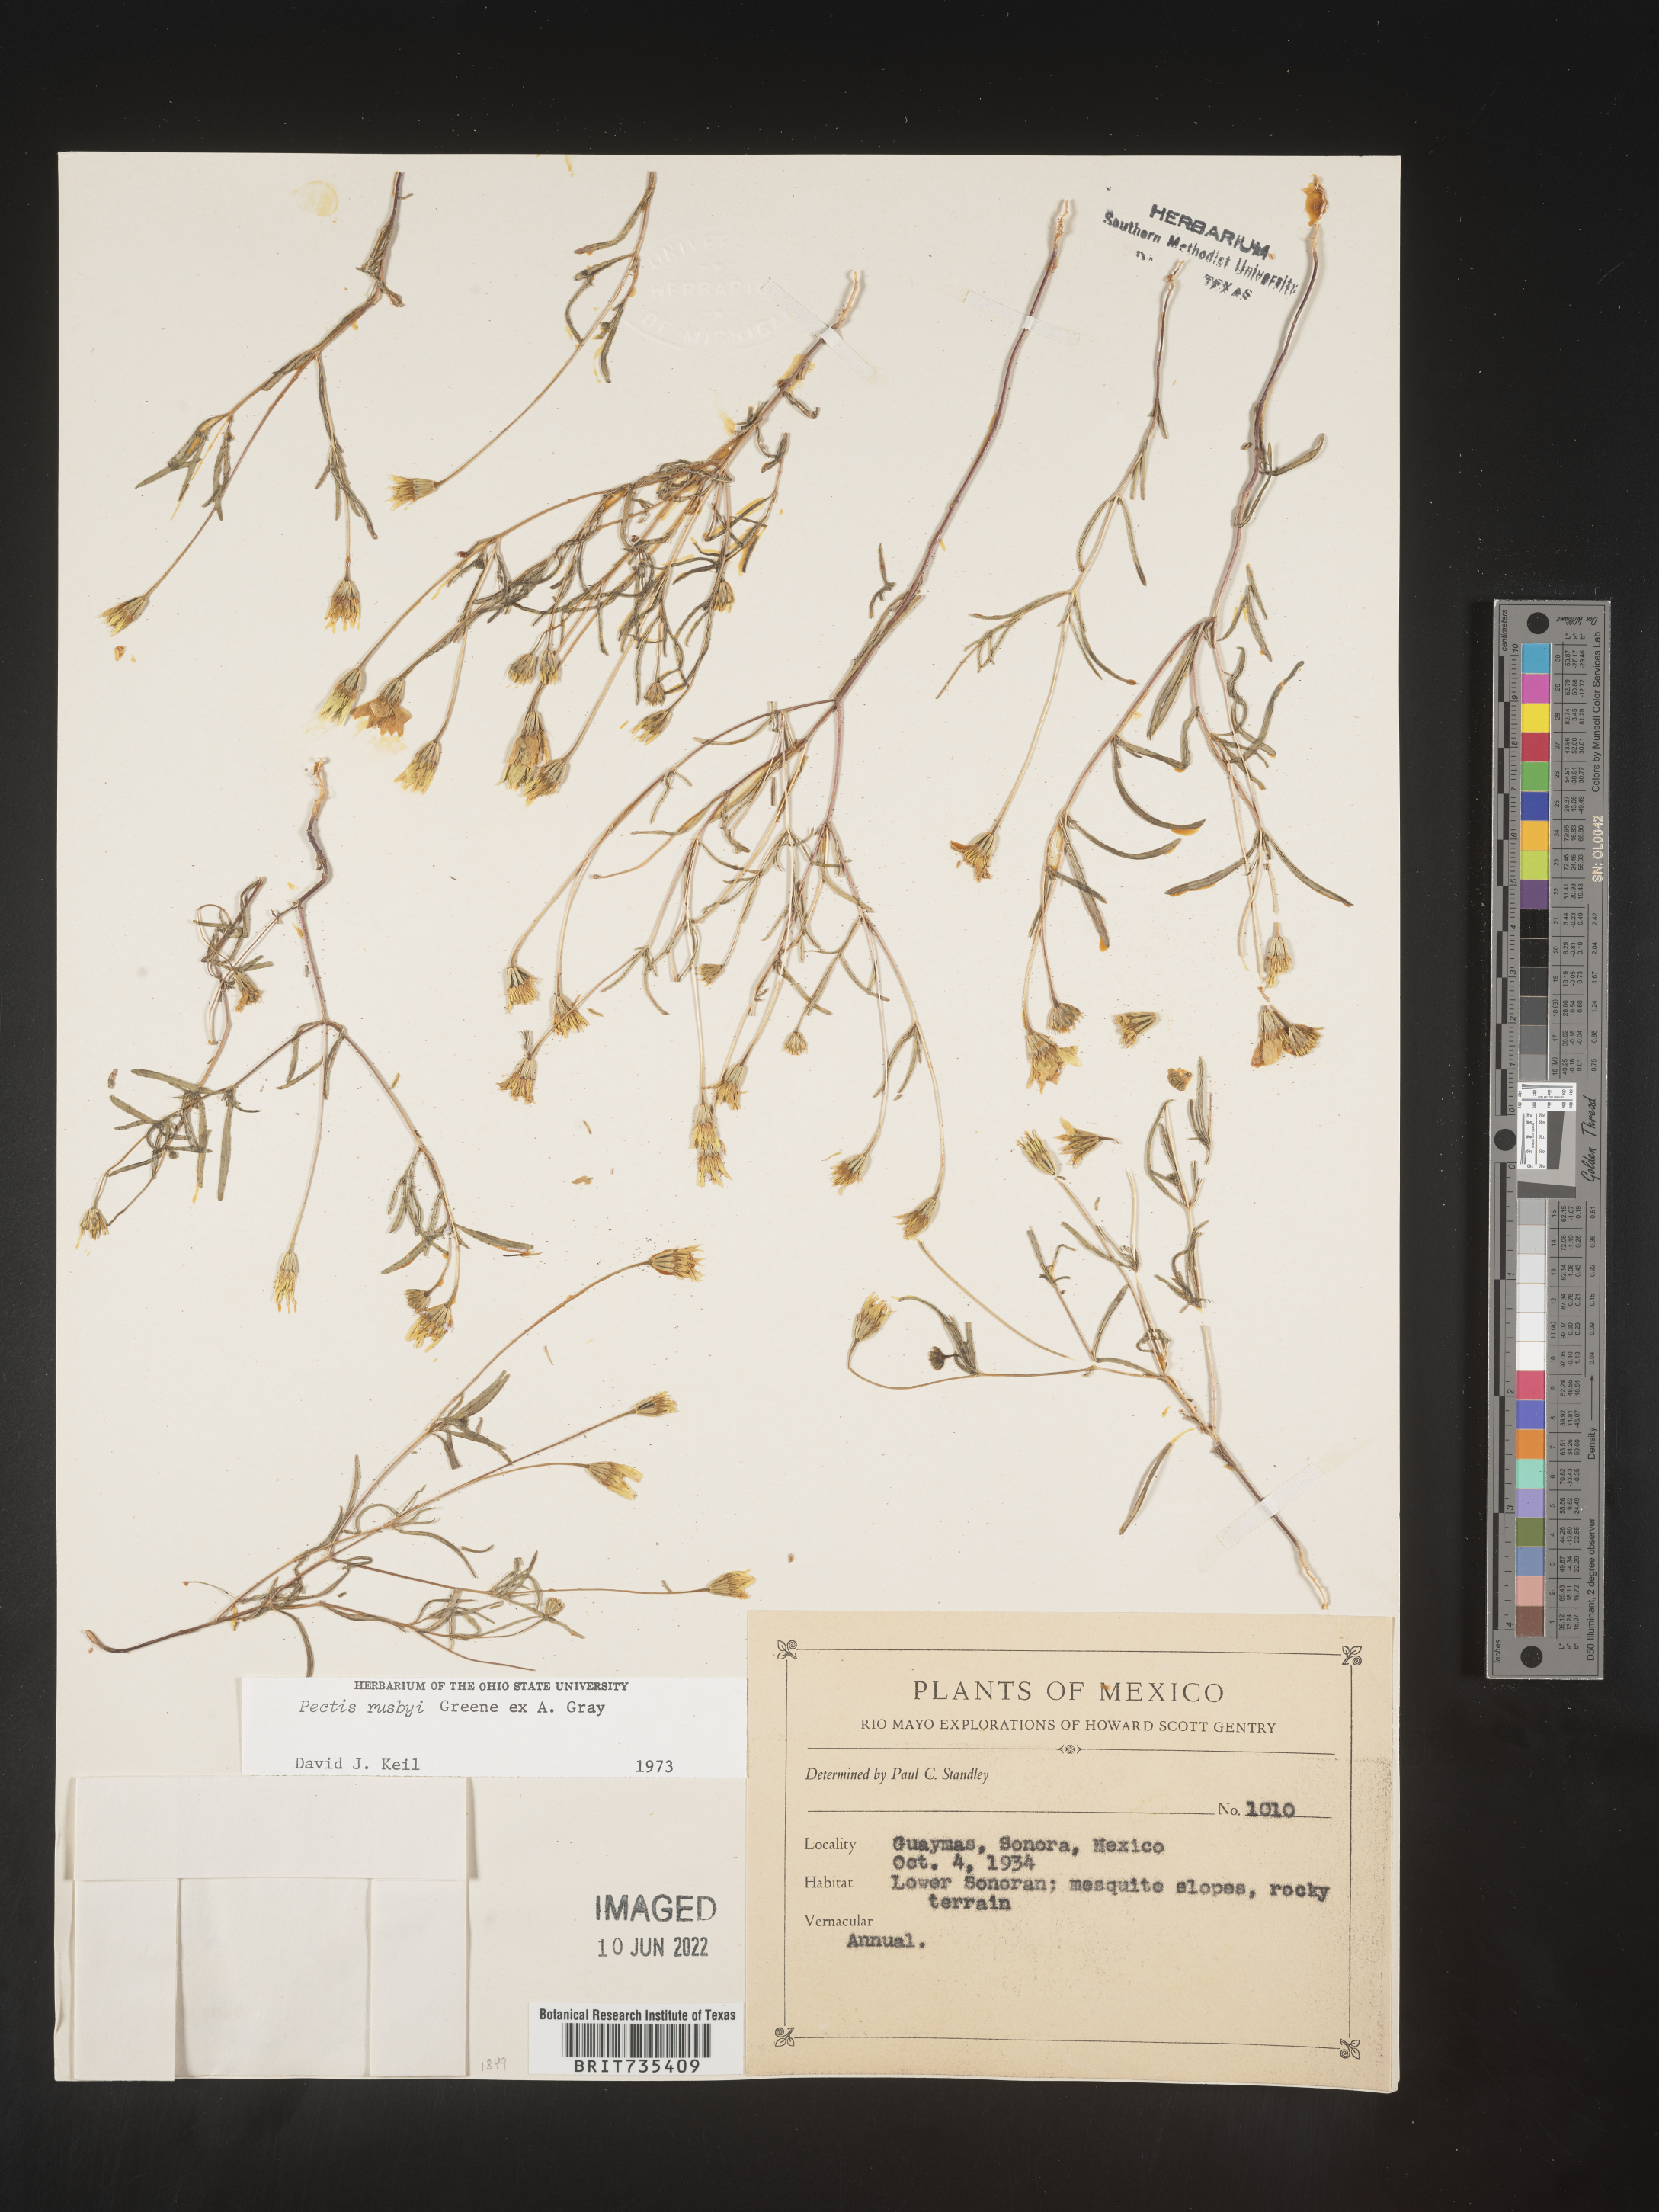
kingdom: Plantae
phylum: Tracheophyta
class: Magnoliopsida
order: Asterales
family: Asteraceae
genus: Pectis
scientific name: Pectis
